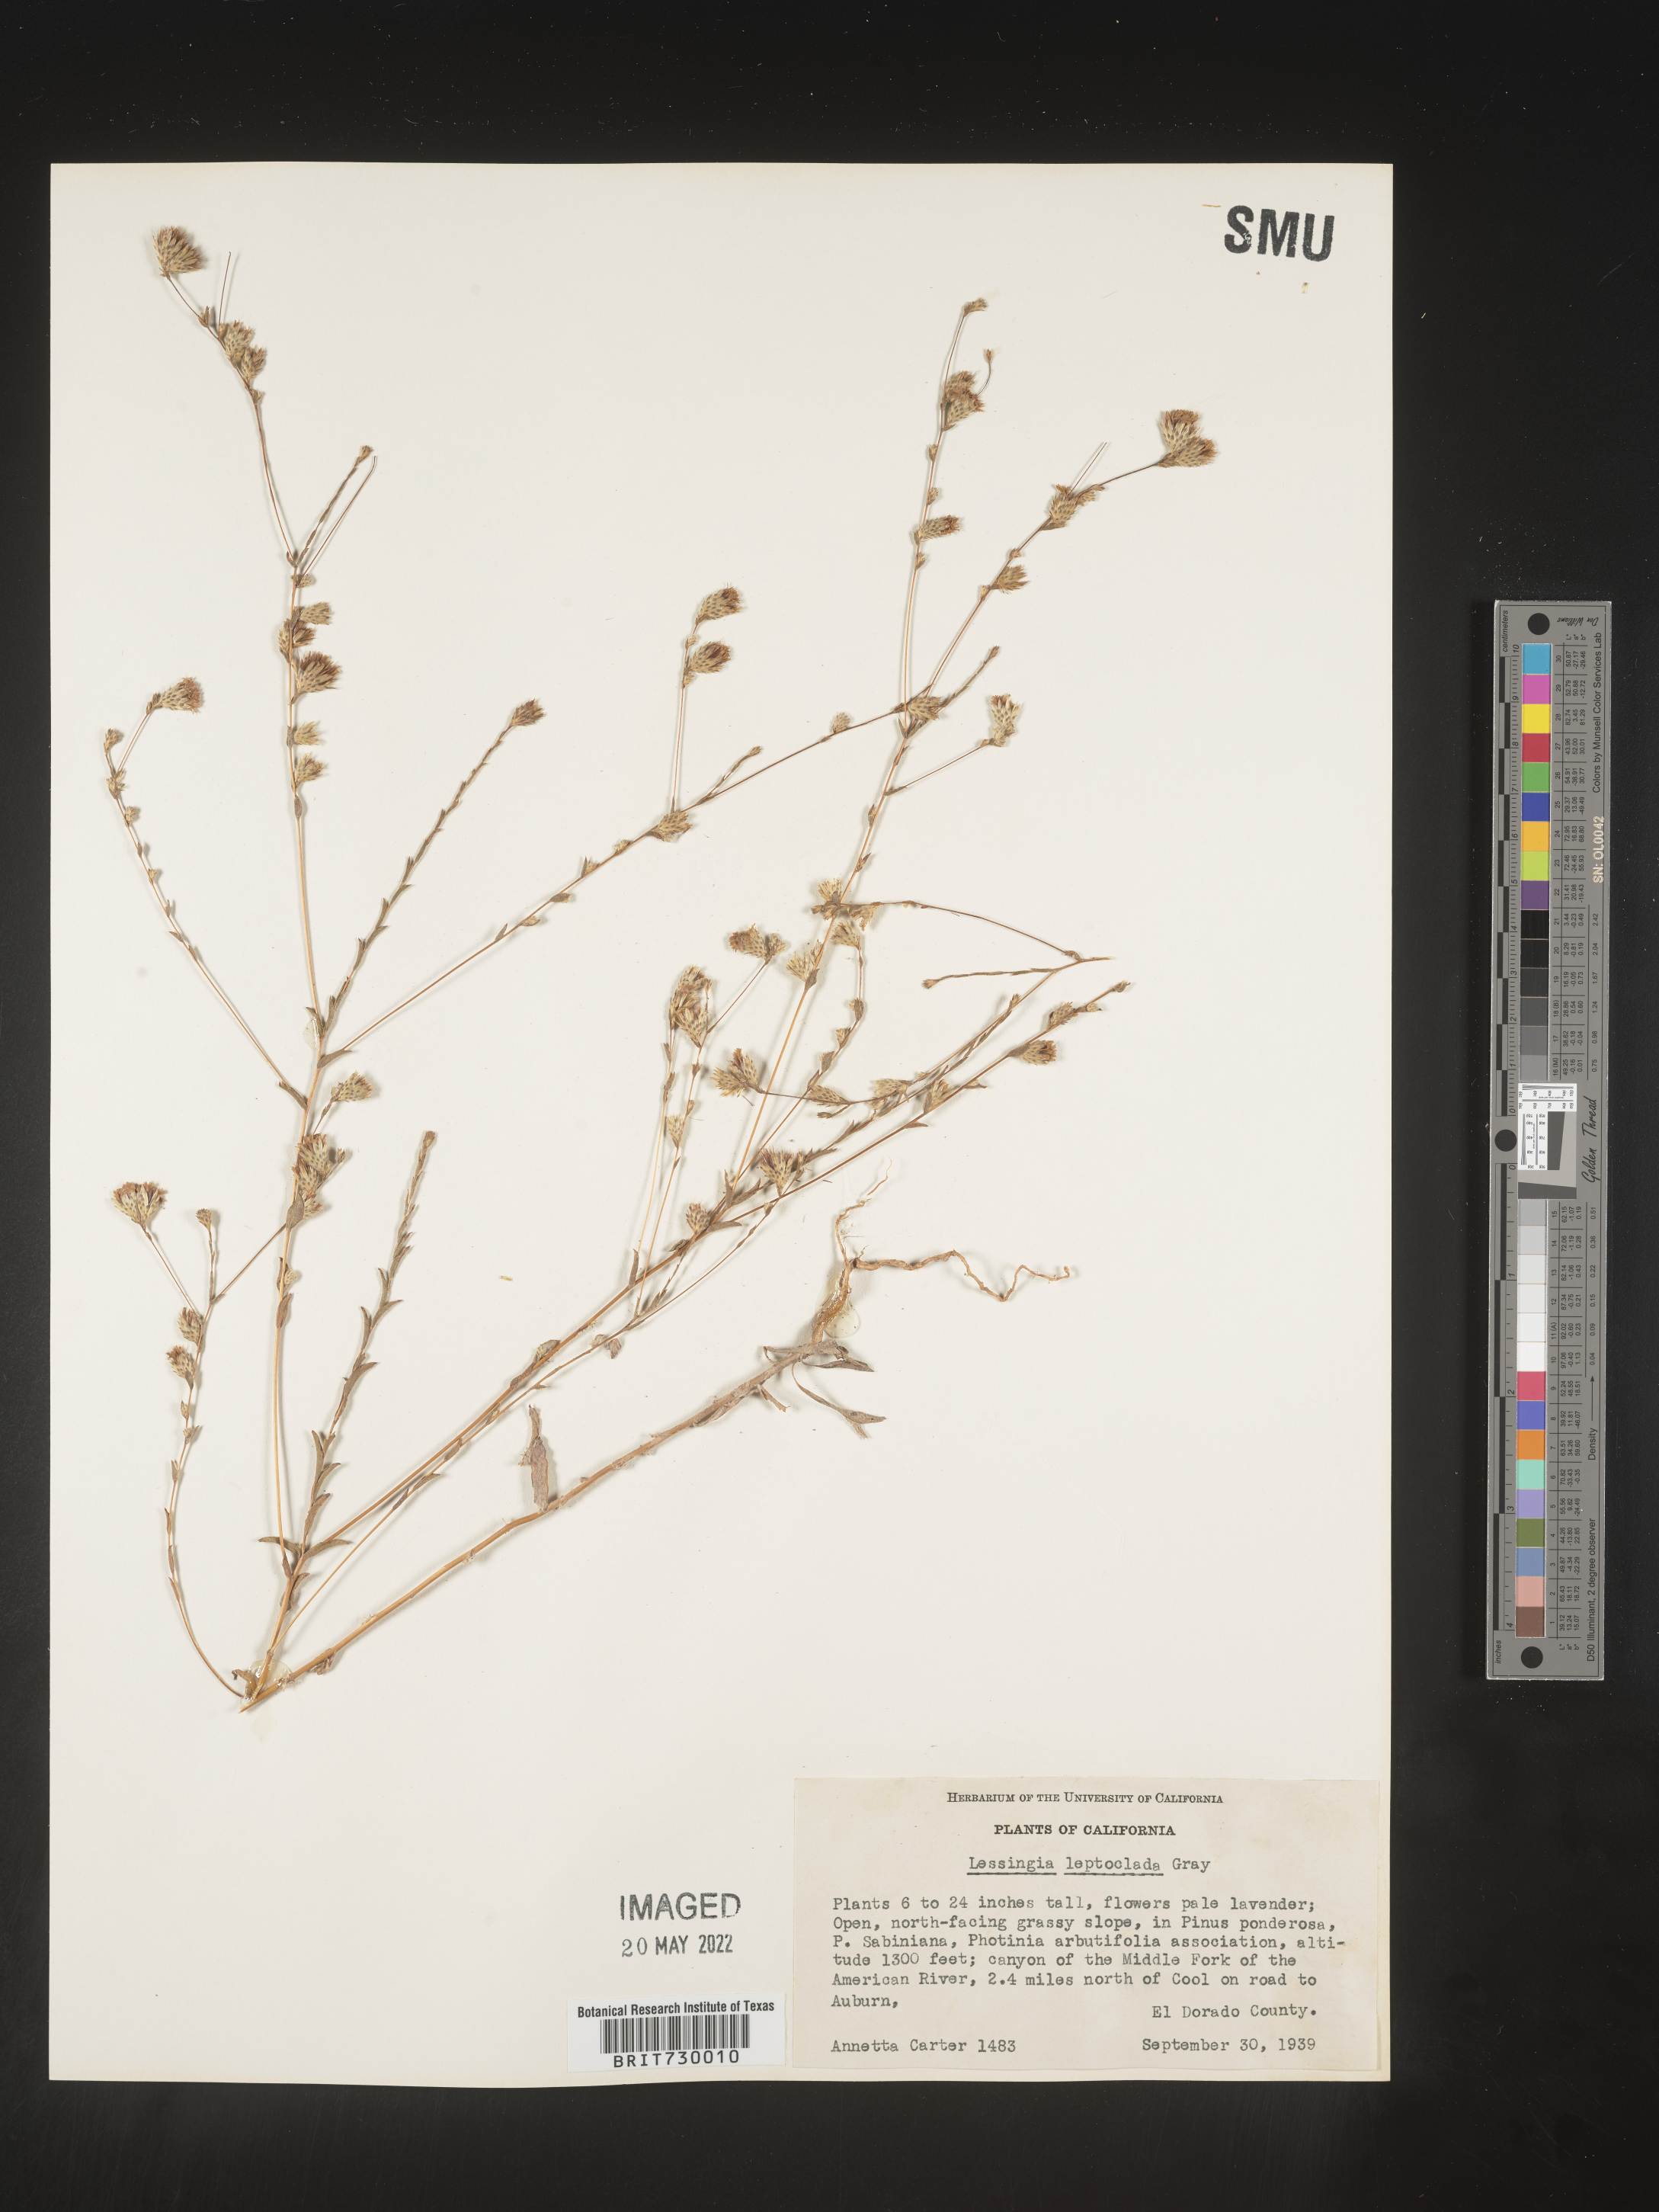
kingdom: Plantae
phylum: Tracheophyta
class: Magnoliopsida
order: Asterales
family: Asteraceae
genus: Lessingia
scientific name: Lessingia
